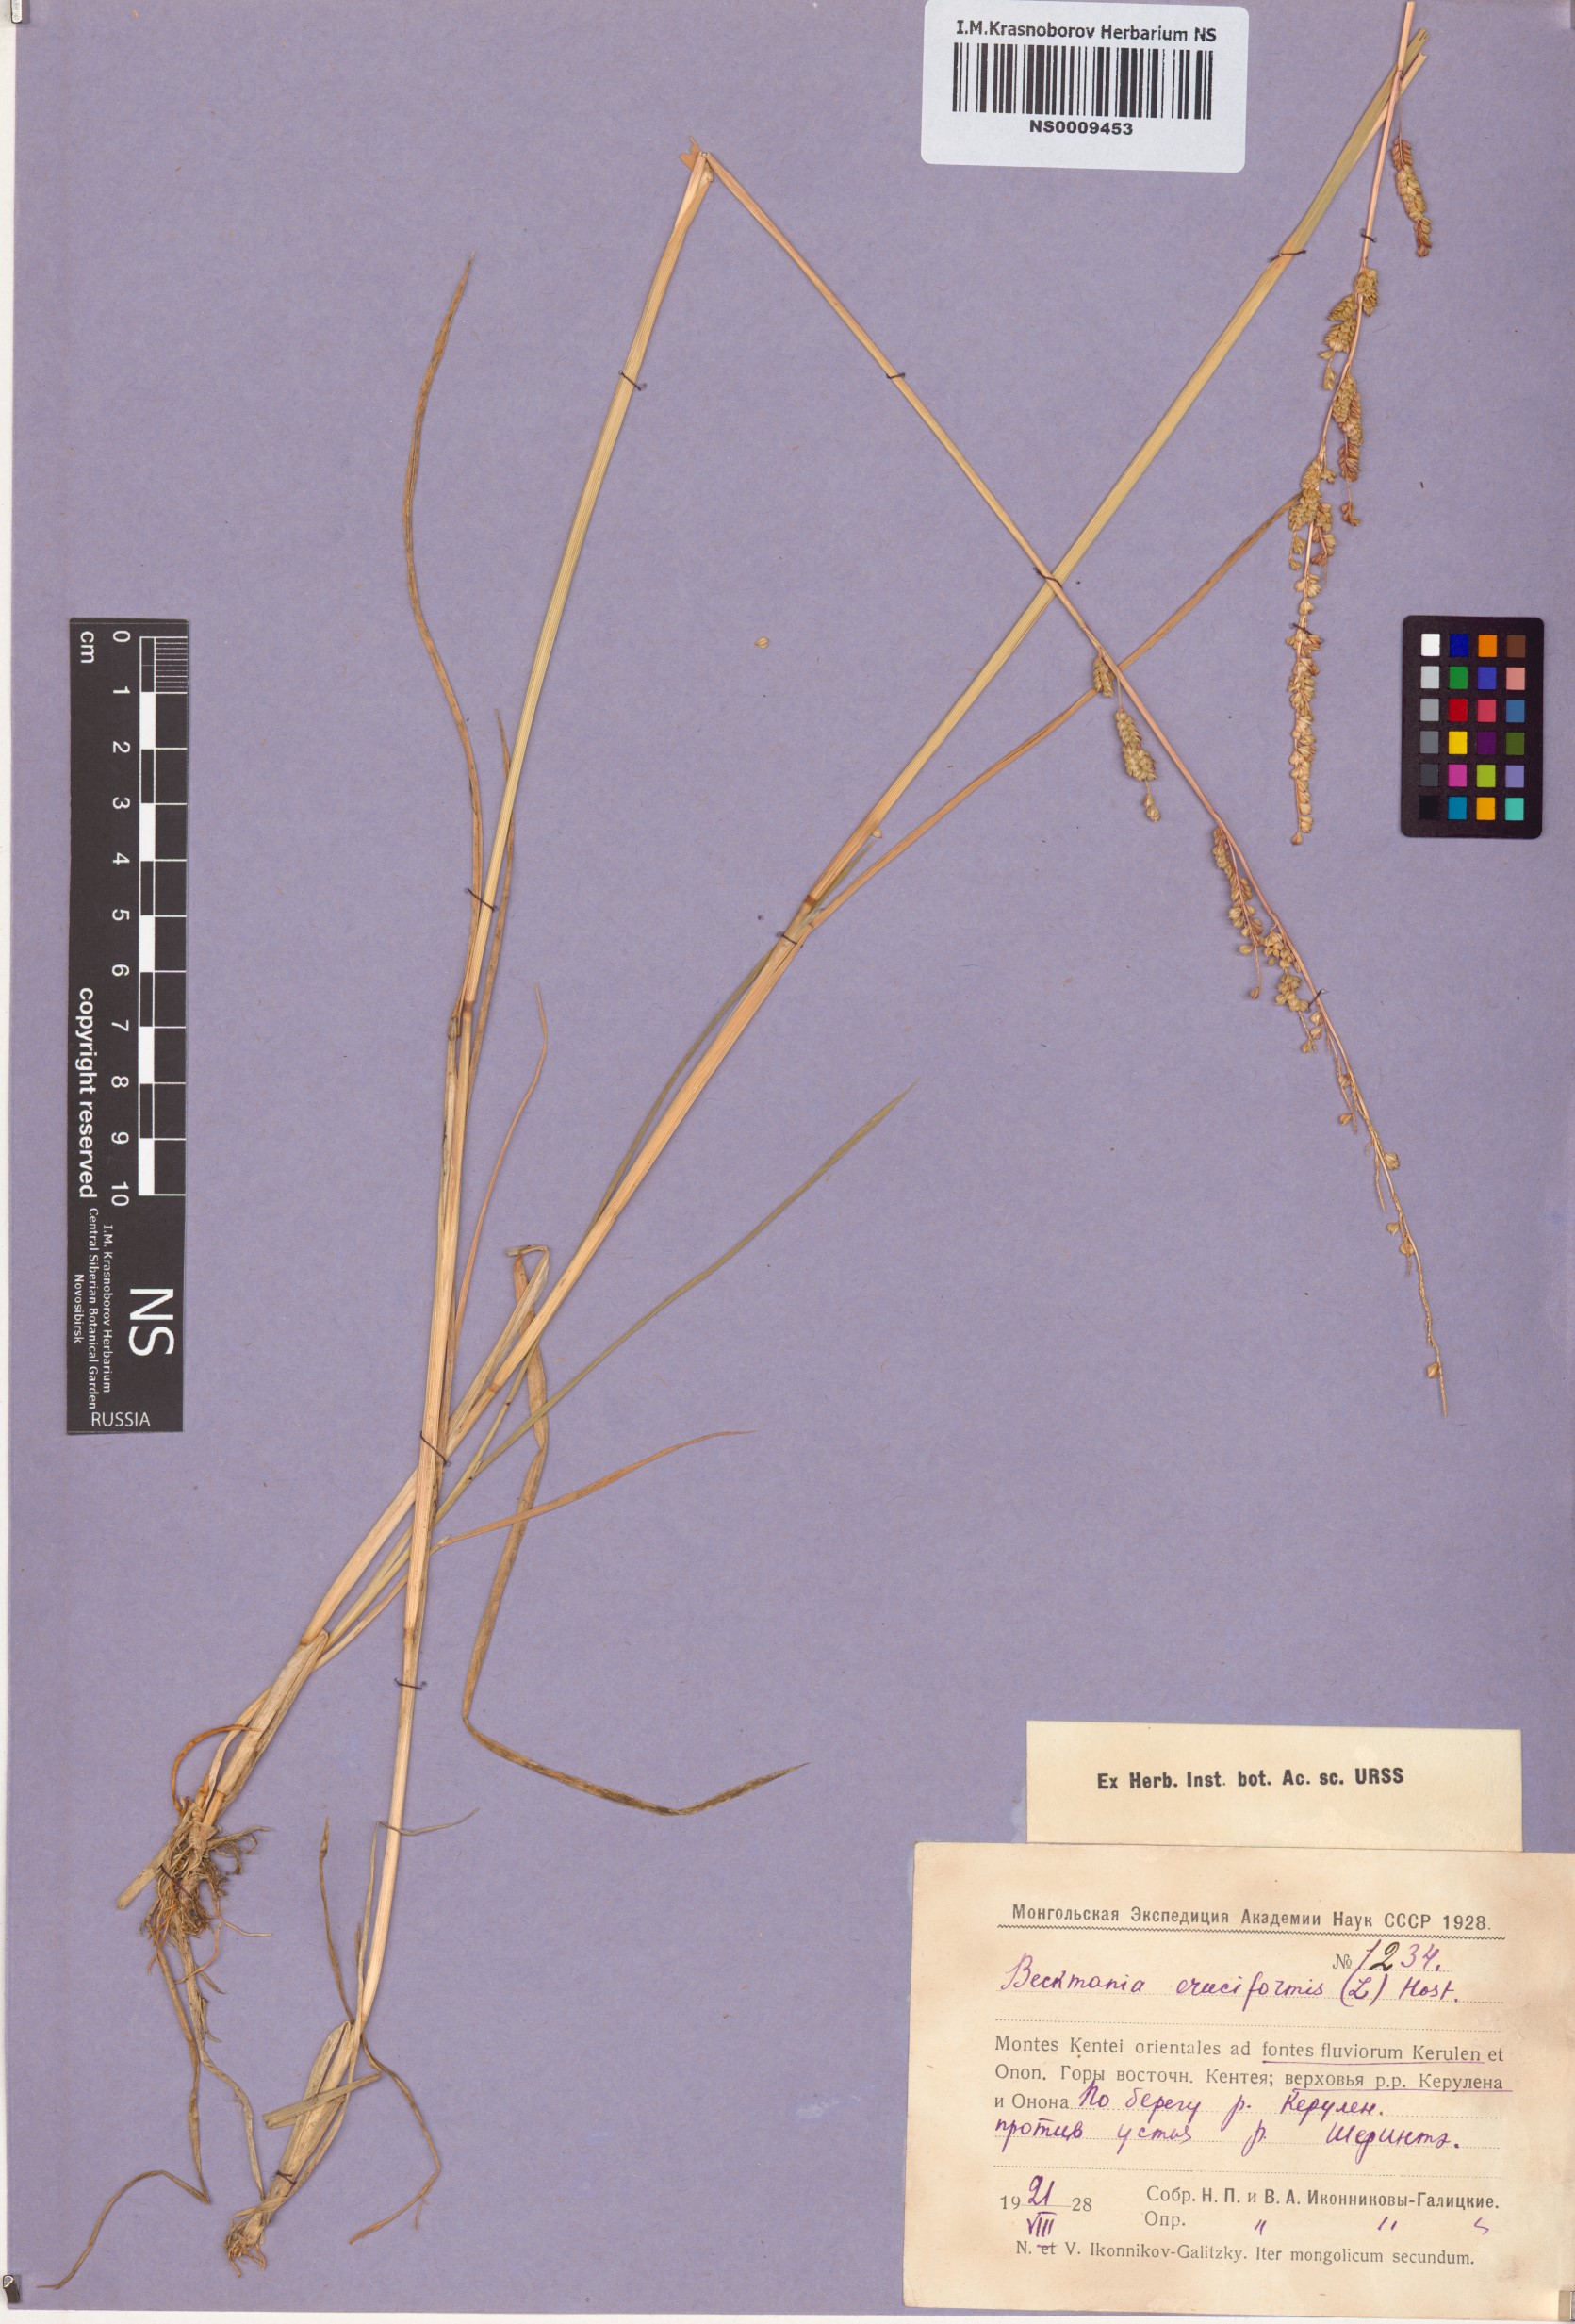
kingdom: Plantae
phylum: Tracheophyta
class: Liliopsida
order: Poales
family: Poaceae
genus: Beckmannia
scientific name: Beckmannia eruciformis
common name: European slough-grass
